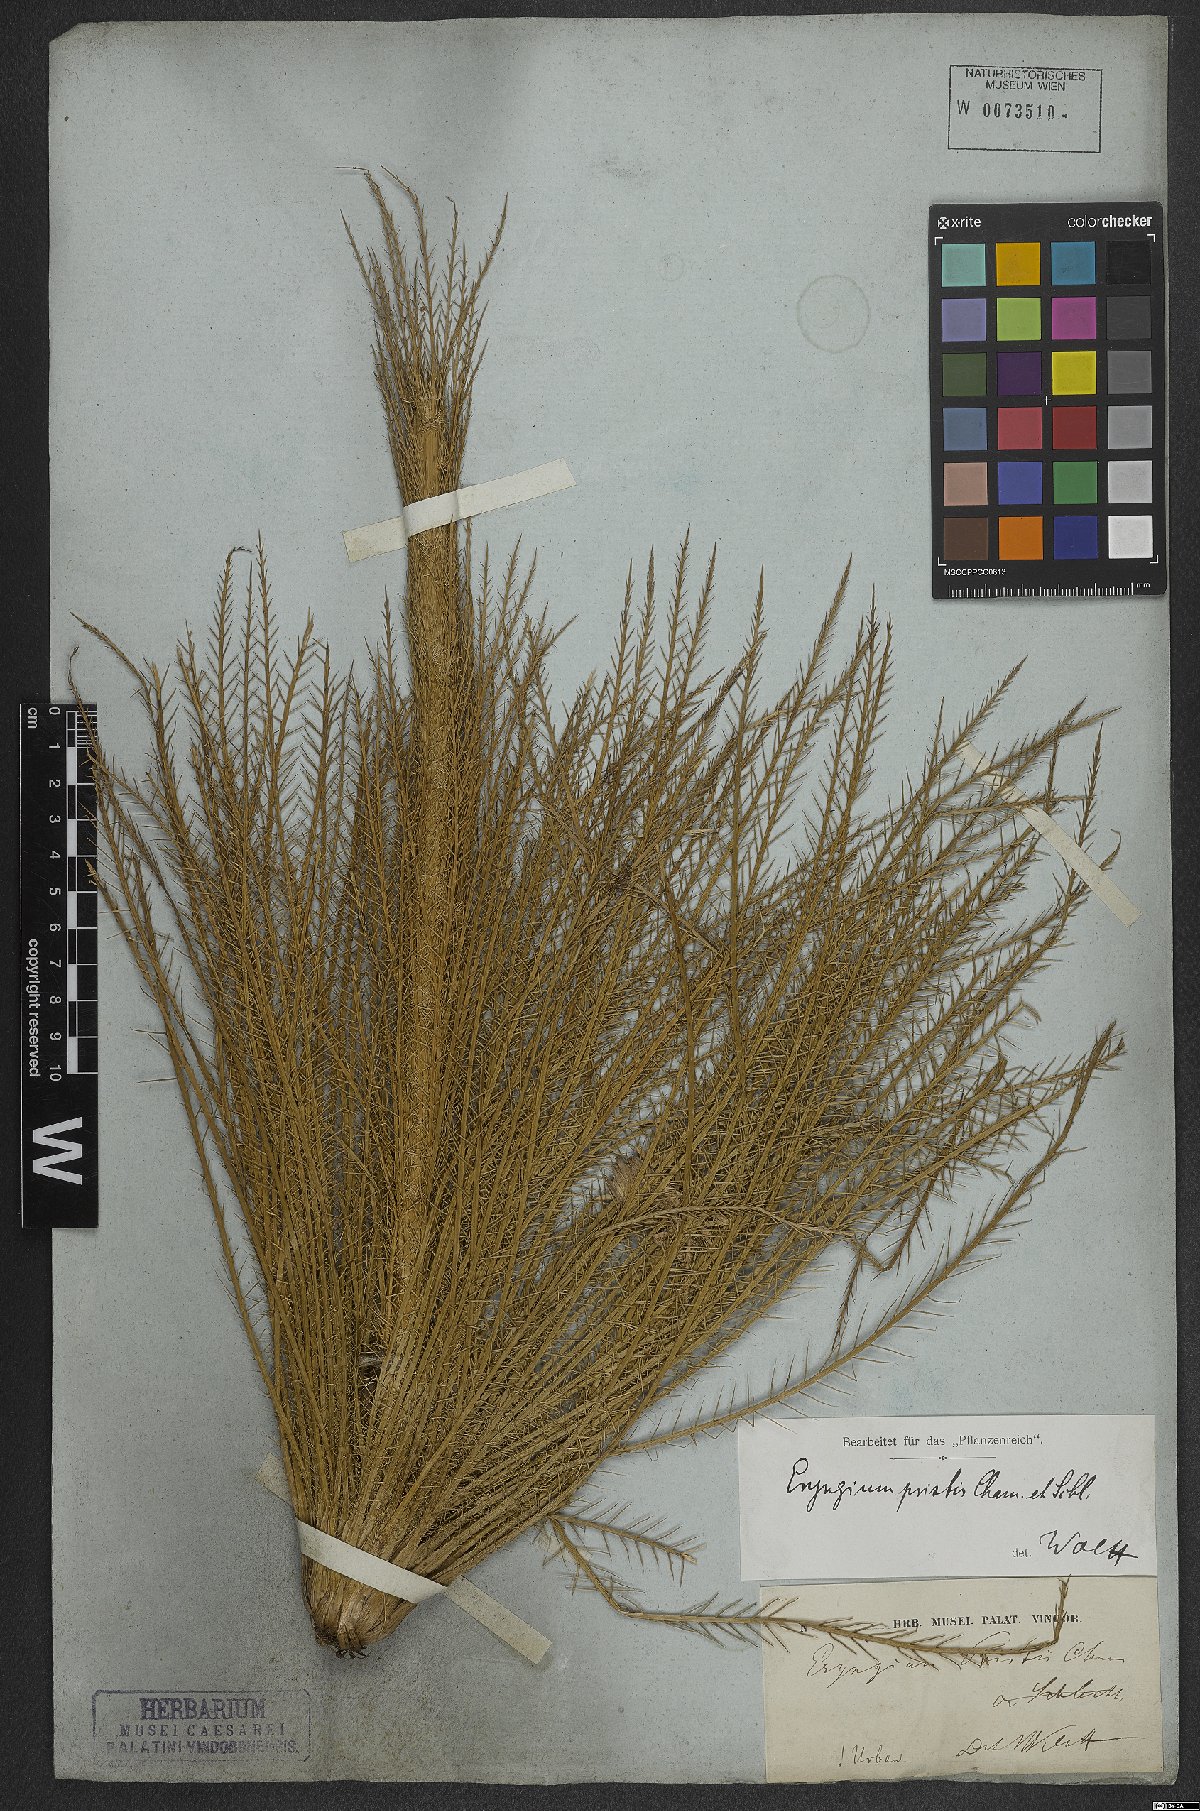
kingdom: Plantae
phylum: Tracheophyta
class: Magnoliopsida
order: Apiales
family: Apiaceae
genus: Eryngium
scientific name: Eryngium pristis
